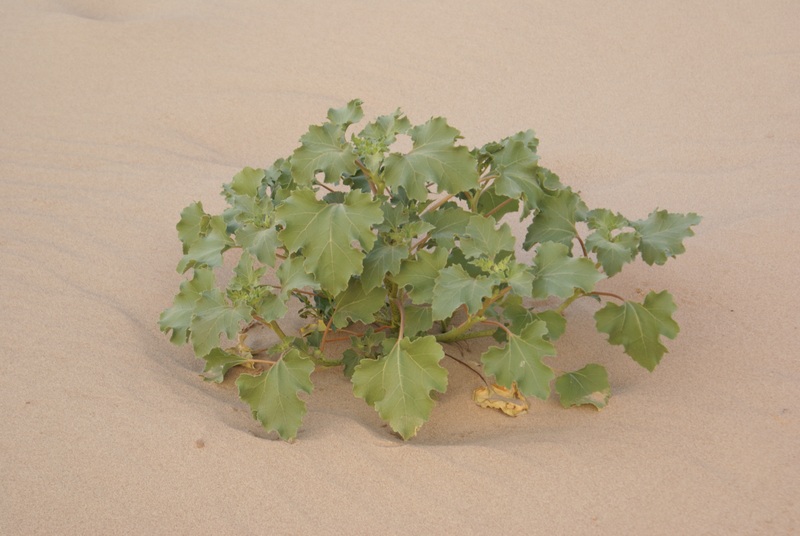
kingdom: Plantae
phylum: Tracheophyta
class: Magnoliopsida
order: Asterales
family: Asteraceae
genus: Xanthium
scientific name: Xanthium orientale
